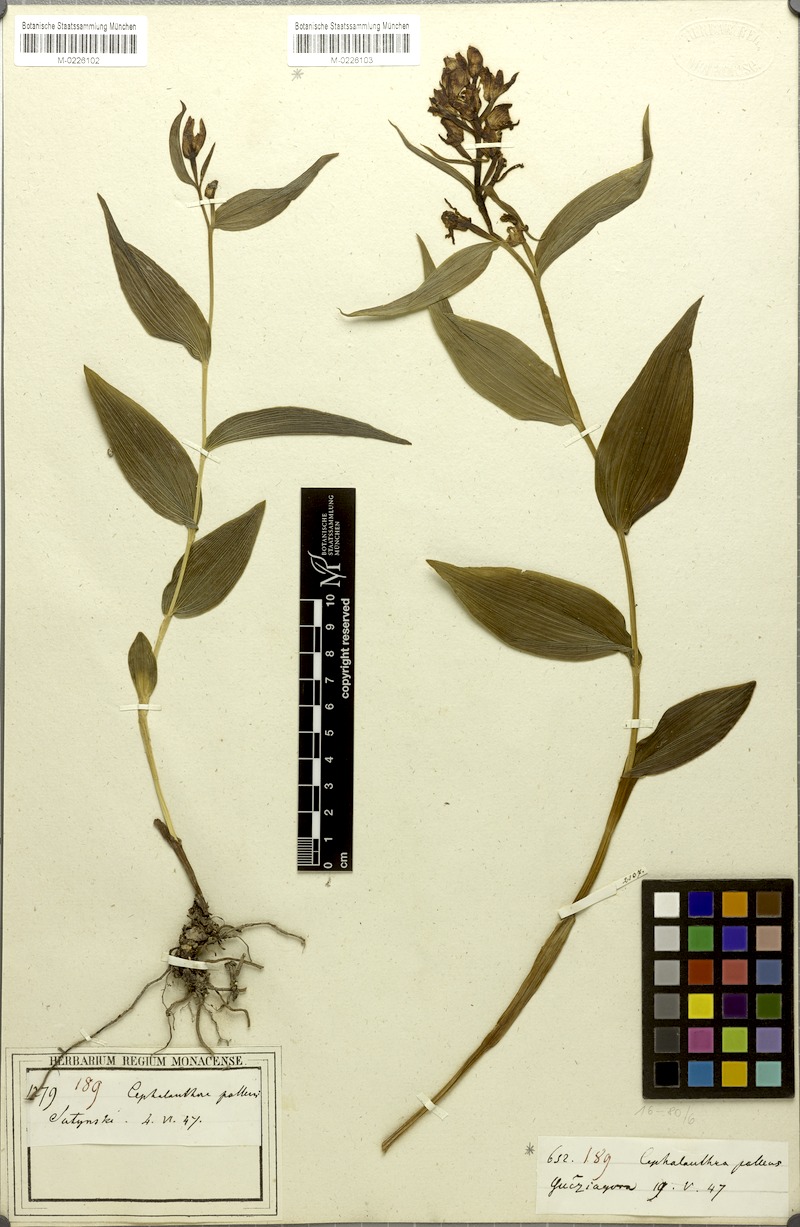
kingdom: Plantae
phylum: Tracheophyta
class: Liliopsida
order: Asparagales
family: Orchidaceae
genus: Cephalanthera
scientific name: Cephalanthera longifolia
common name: Narrow-leaved helleborine
